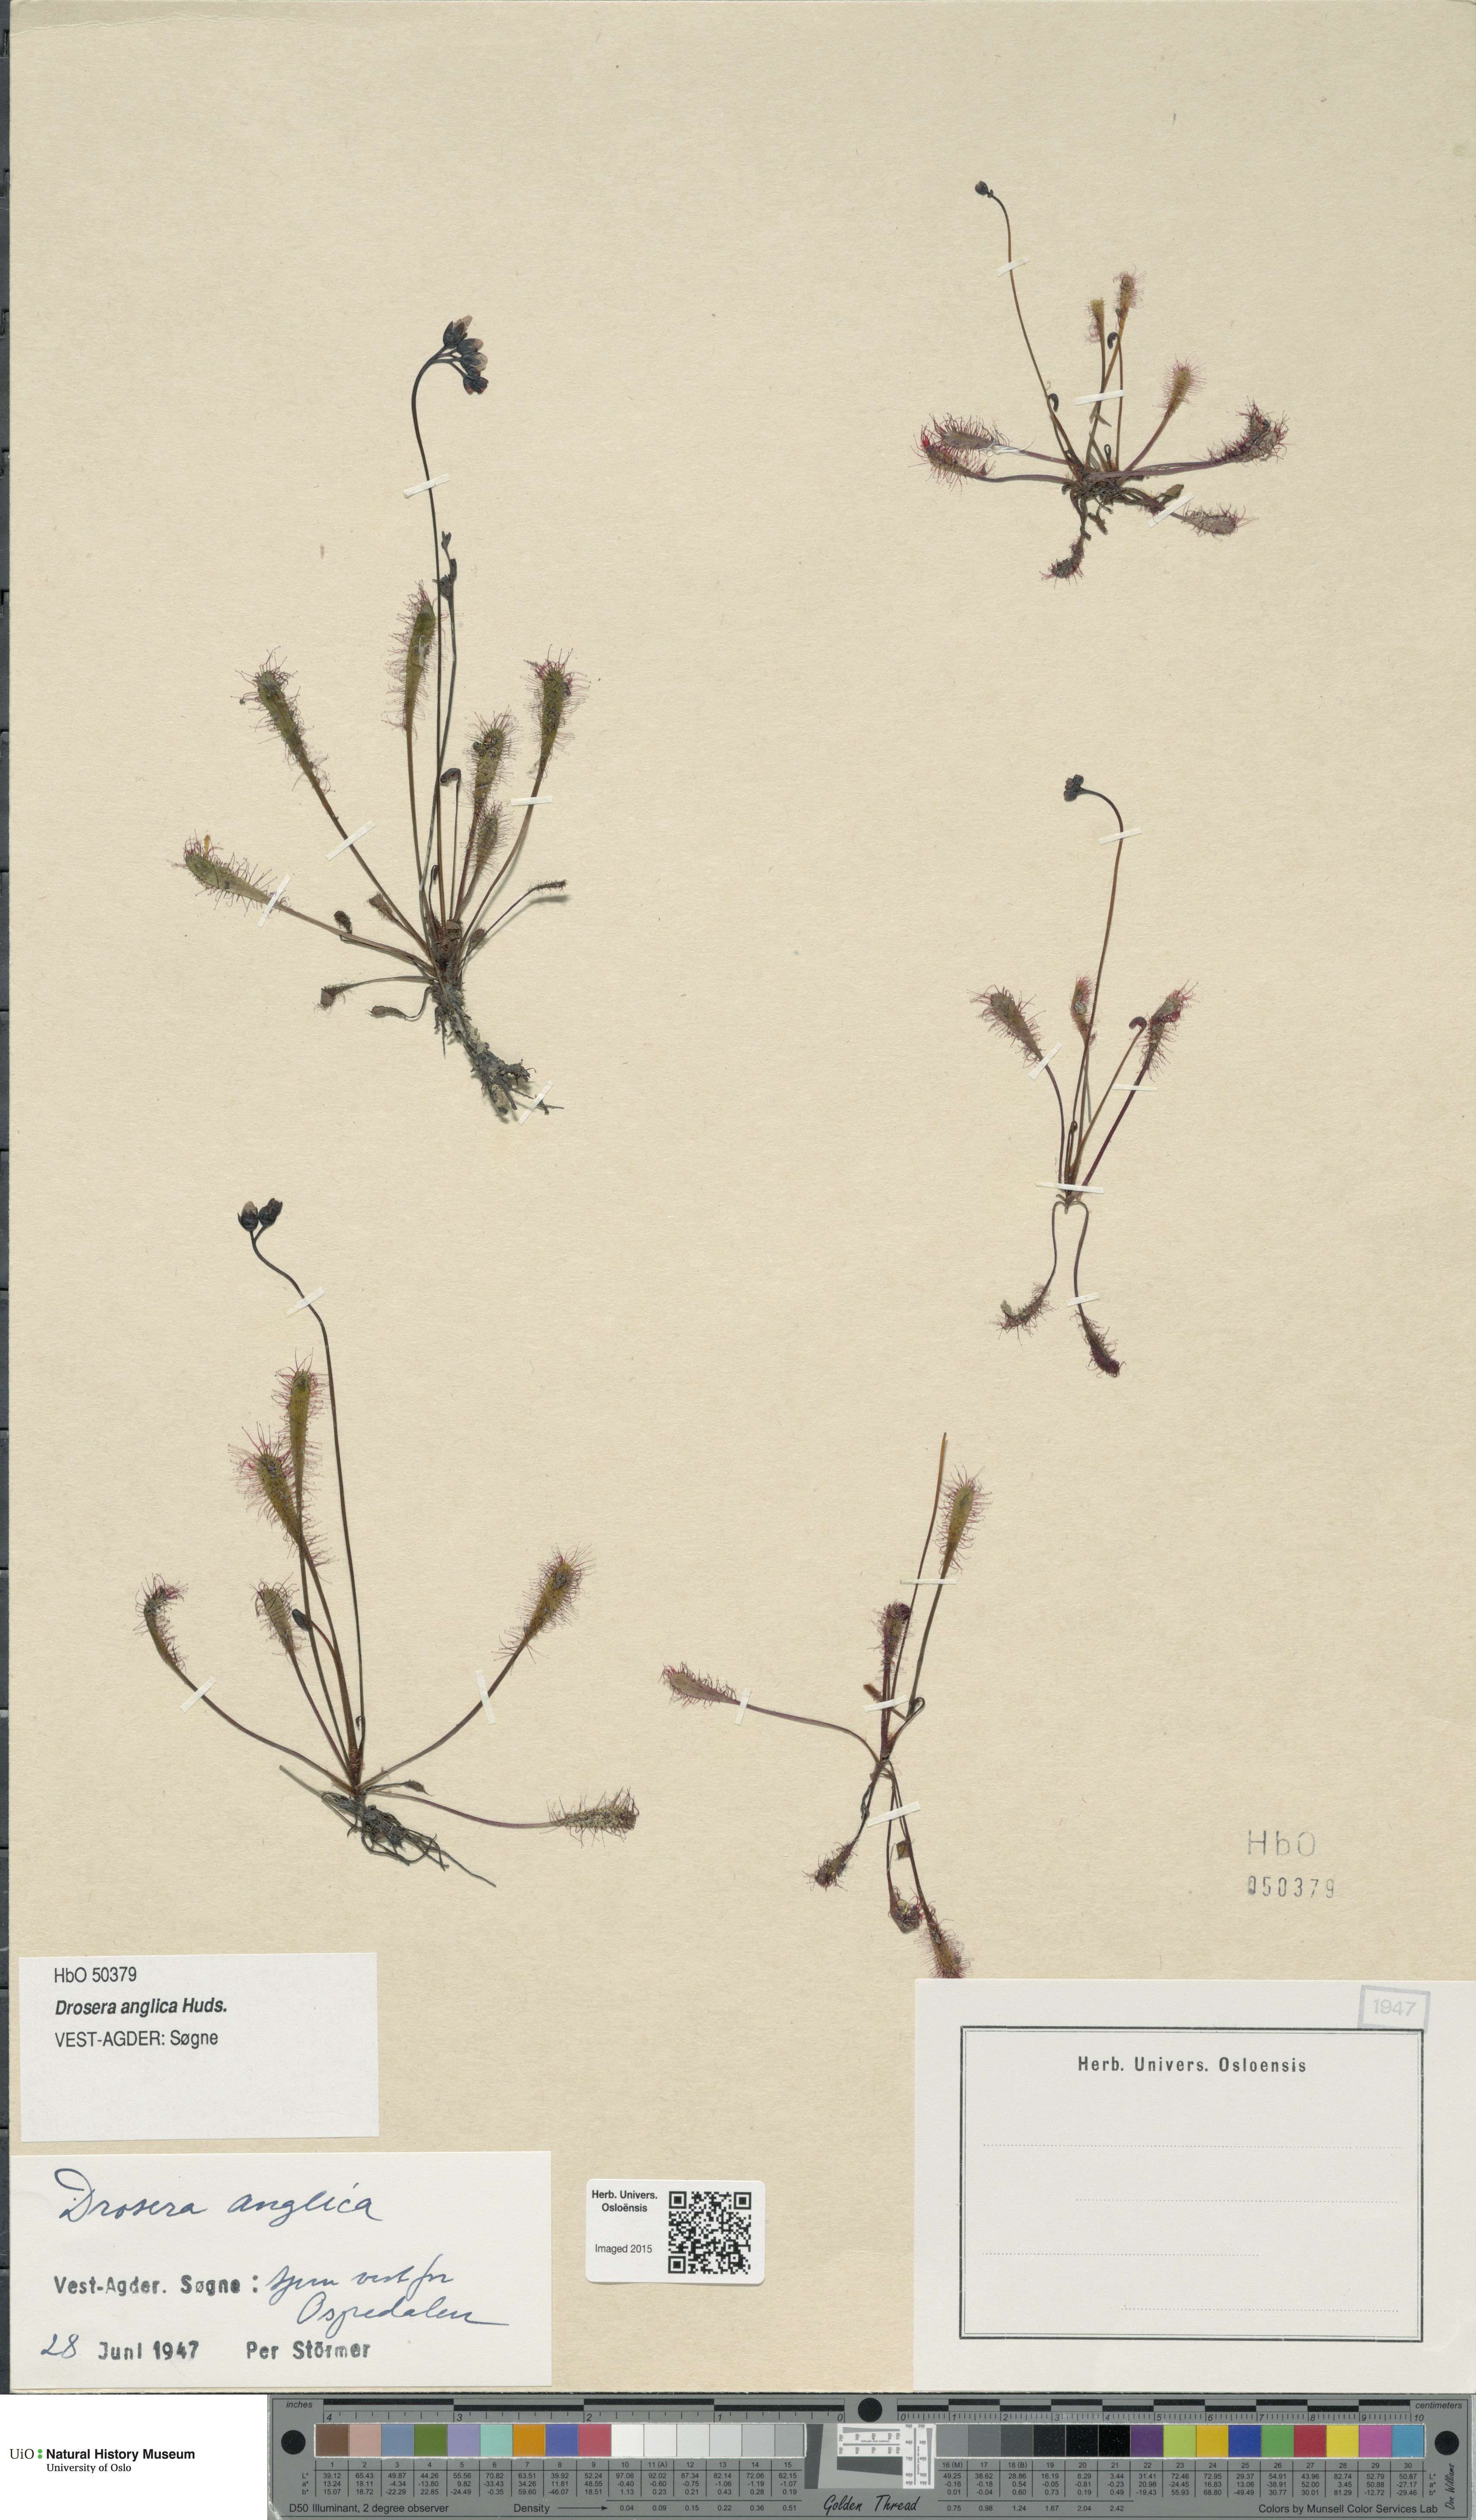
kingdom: Plantae
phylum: Tracheophyta
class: Magnoliopsida
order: Caryophyllales
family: Droseraceae
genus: Drosera
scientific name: Drosera anglica
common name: Great sundew
